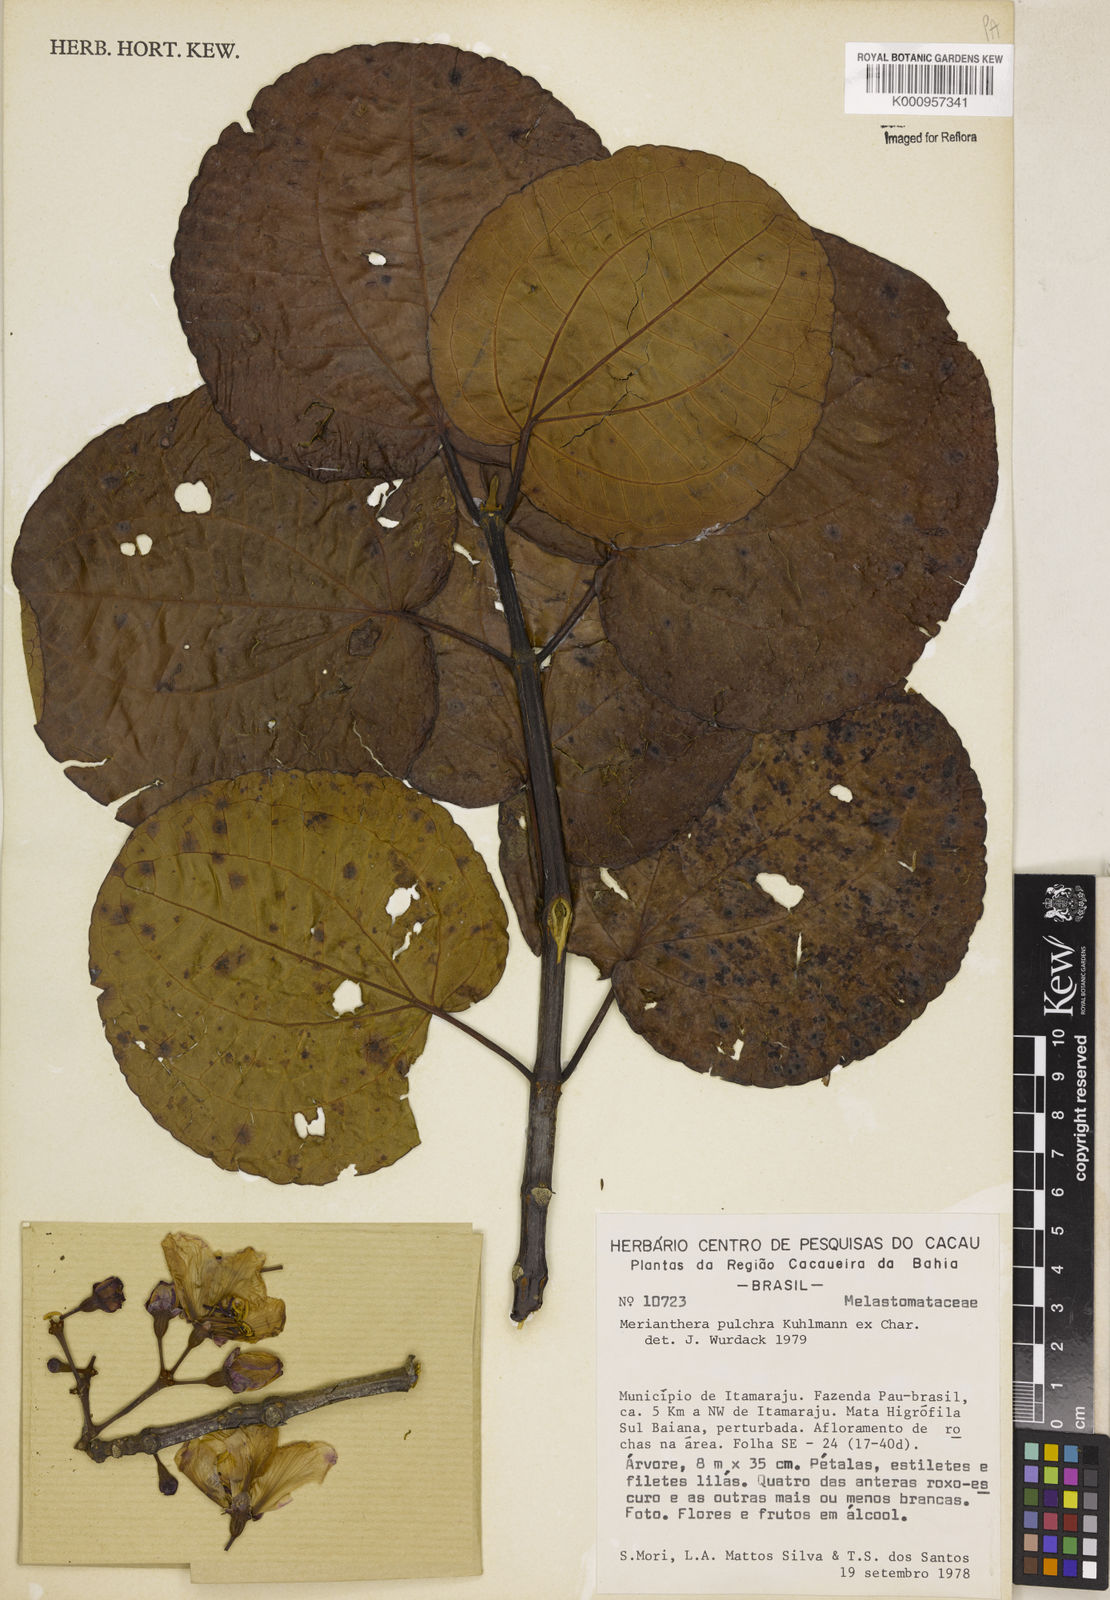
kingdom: Plantae
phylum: Tracheophyta
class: Magnoliopsida
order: Myrtales
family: Melastomataceae
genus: Merianthera
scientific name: Merianthera pulchra
